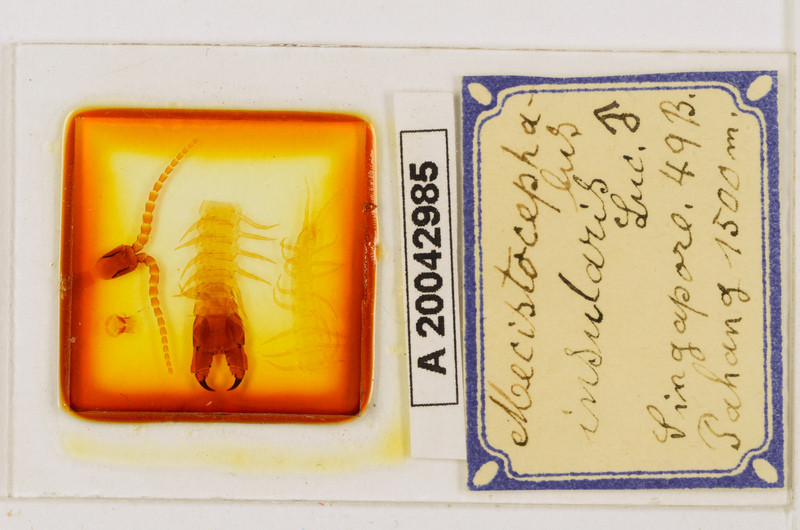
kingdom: Animalia
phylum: Arthropoda
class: Chilopoda
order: Geophilomorpha
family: Mecistocephalidae
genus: Mecistocephalus
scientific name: Mecistocephalus insularis
